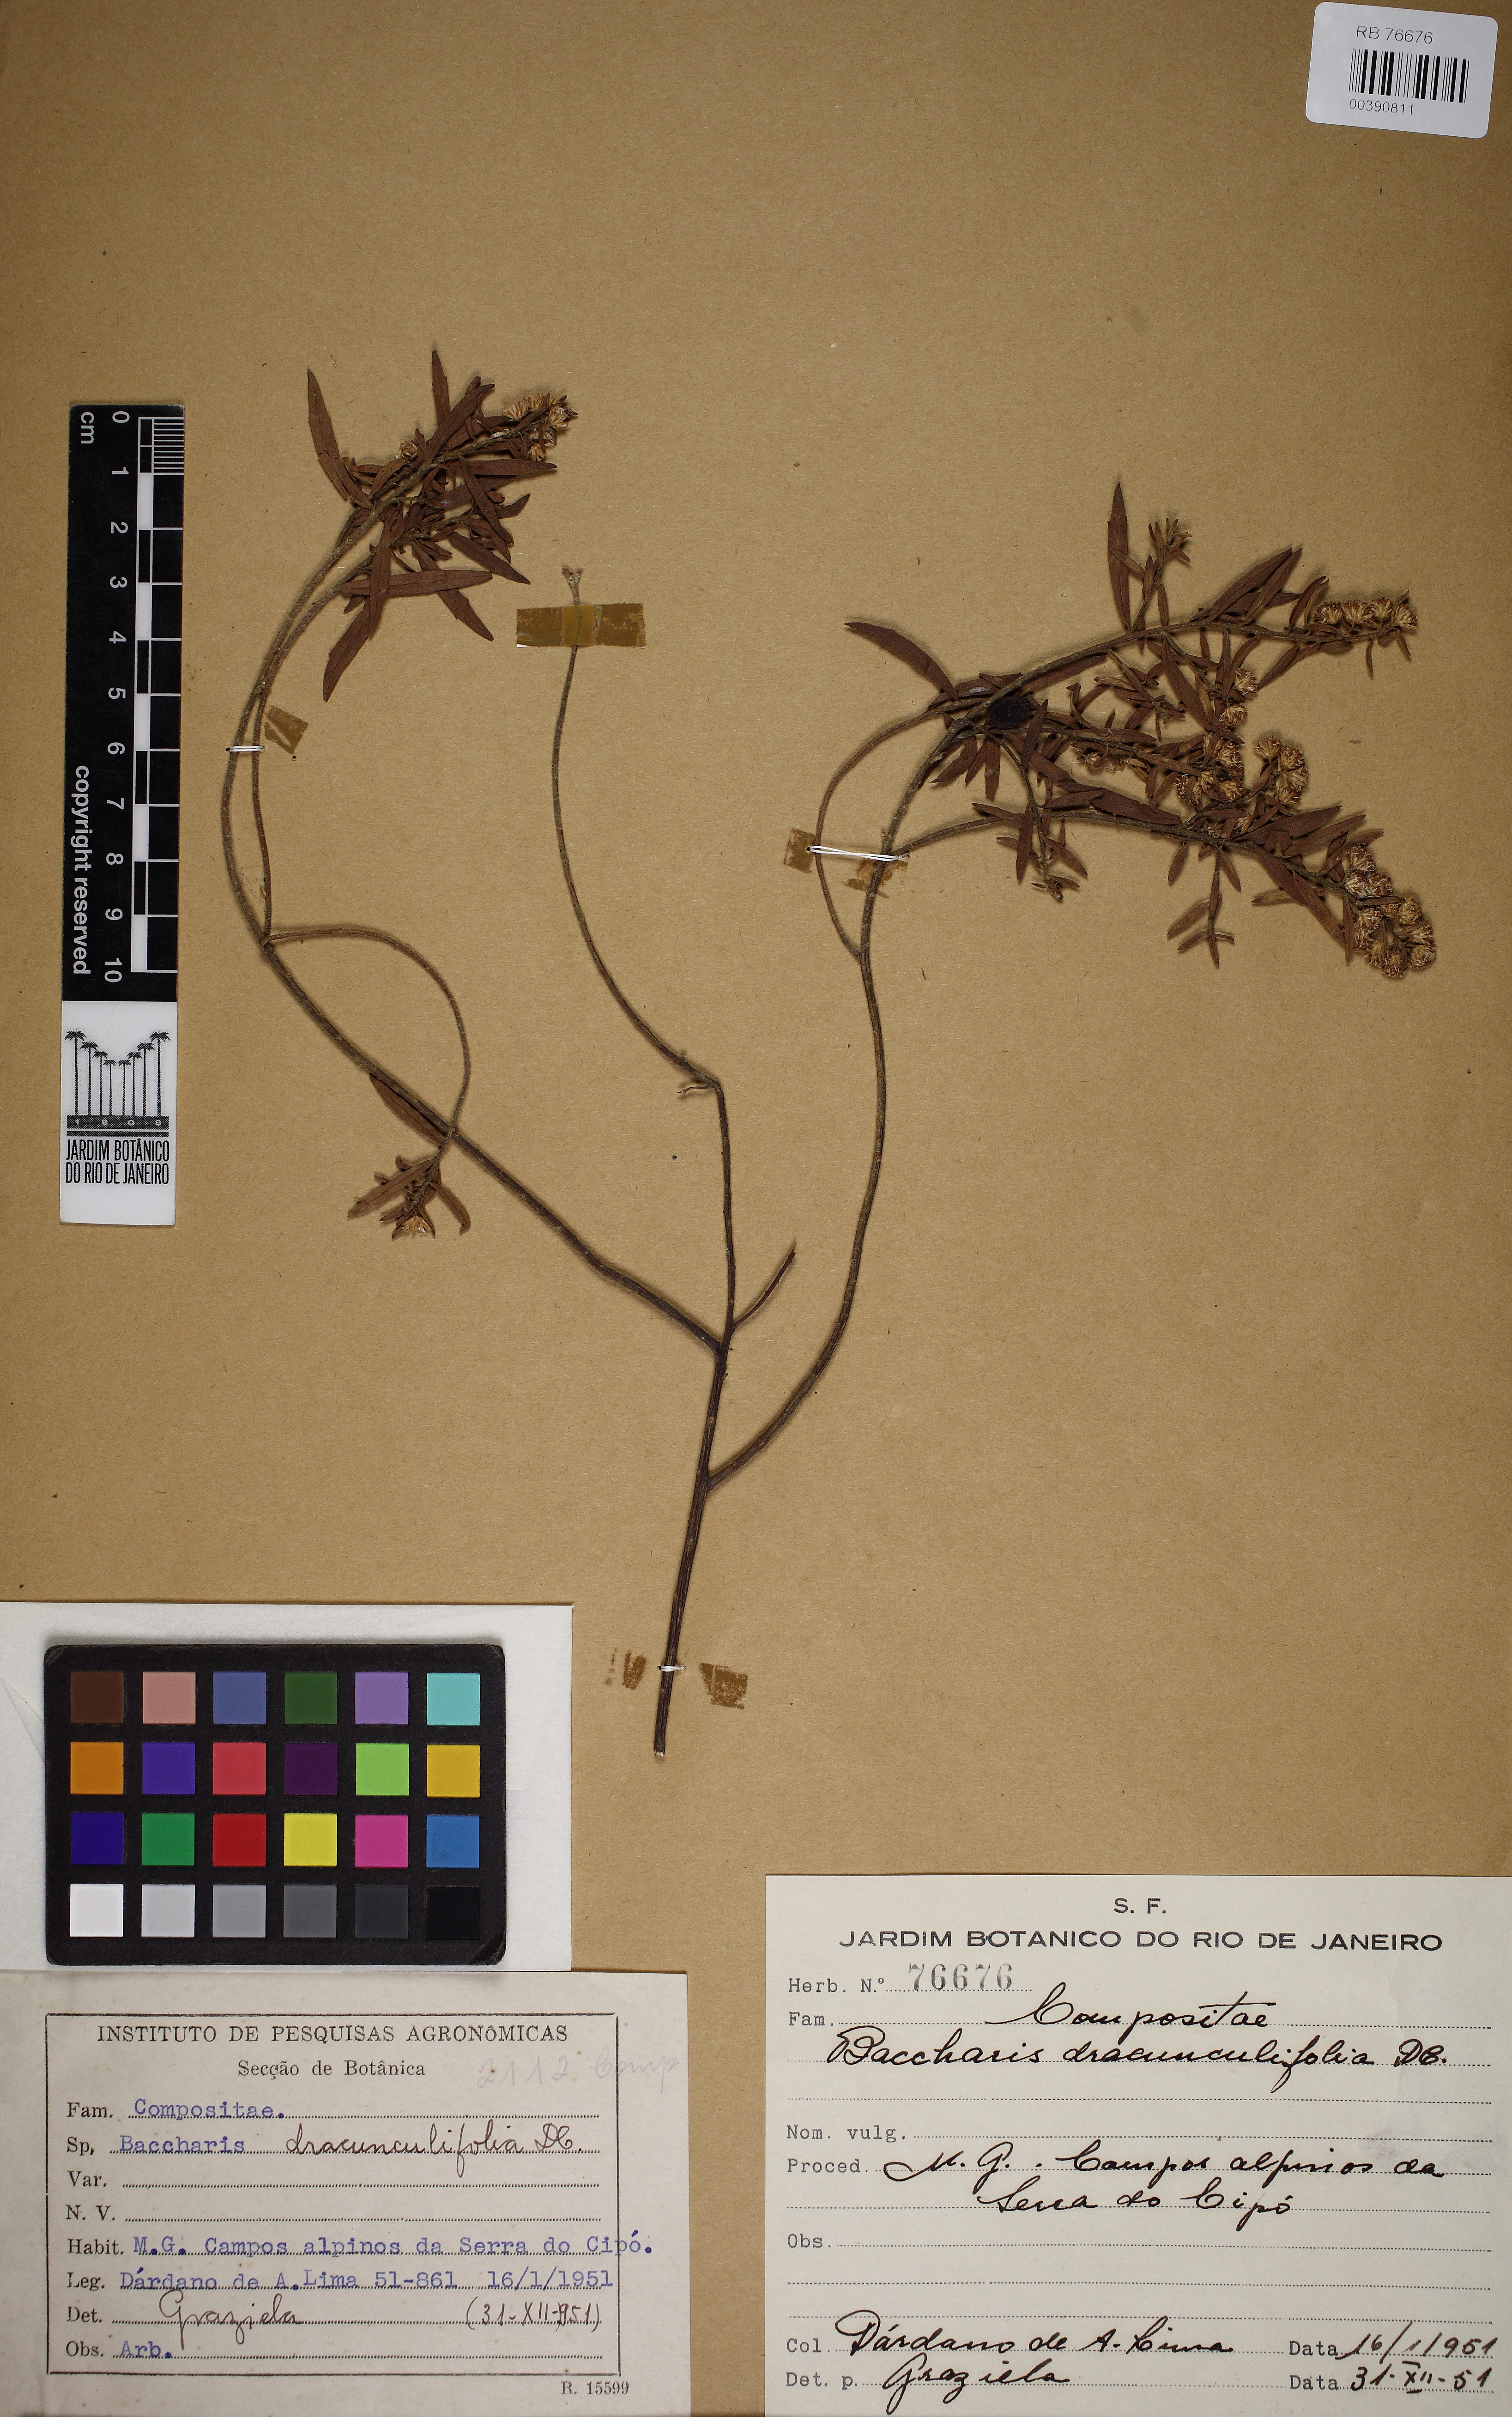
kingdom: Plantae
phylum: Tracheophyta
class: Magnoliopsida
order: Asterales
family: Asteraceae
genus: Baccharis
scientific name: Baccharis dracunculifolia
